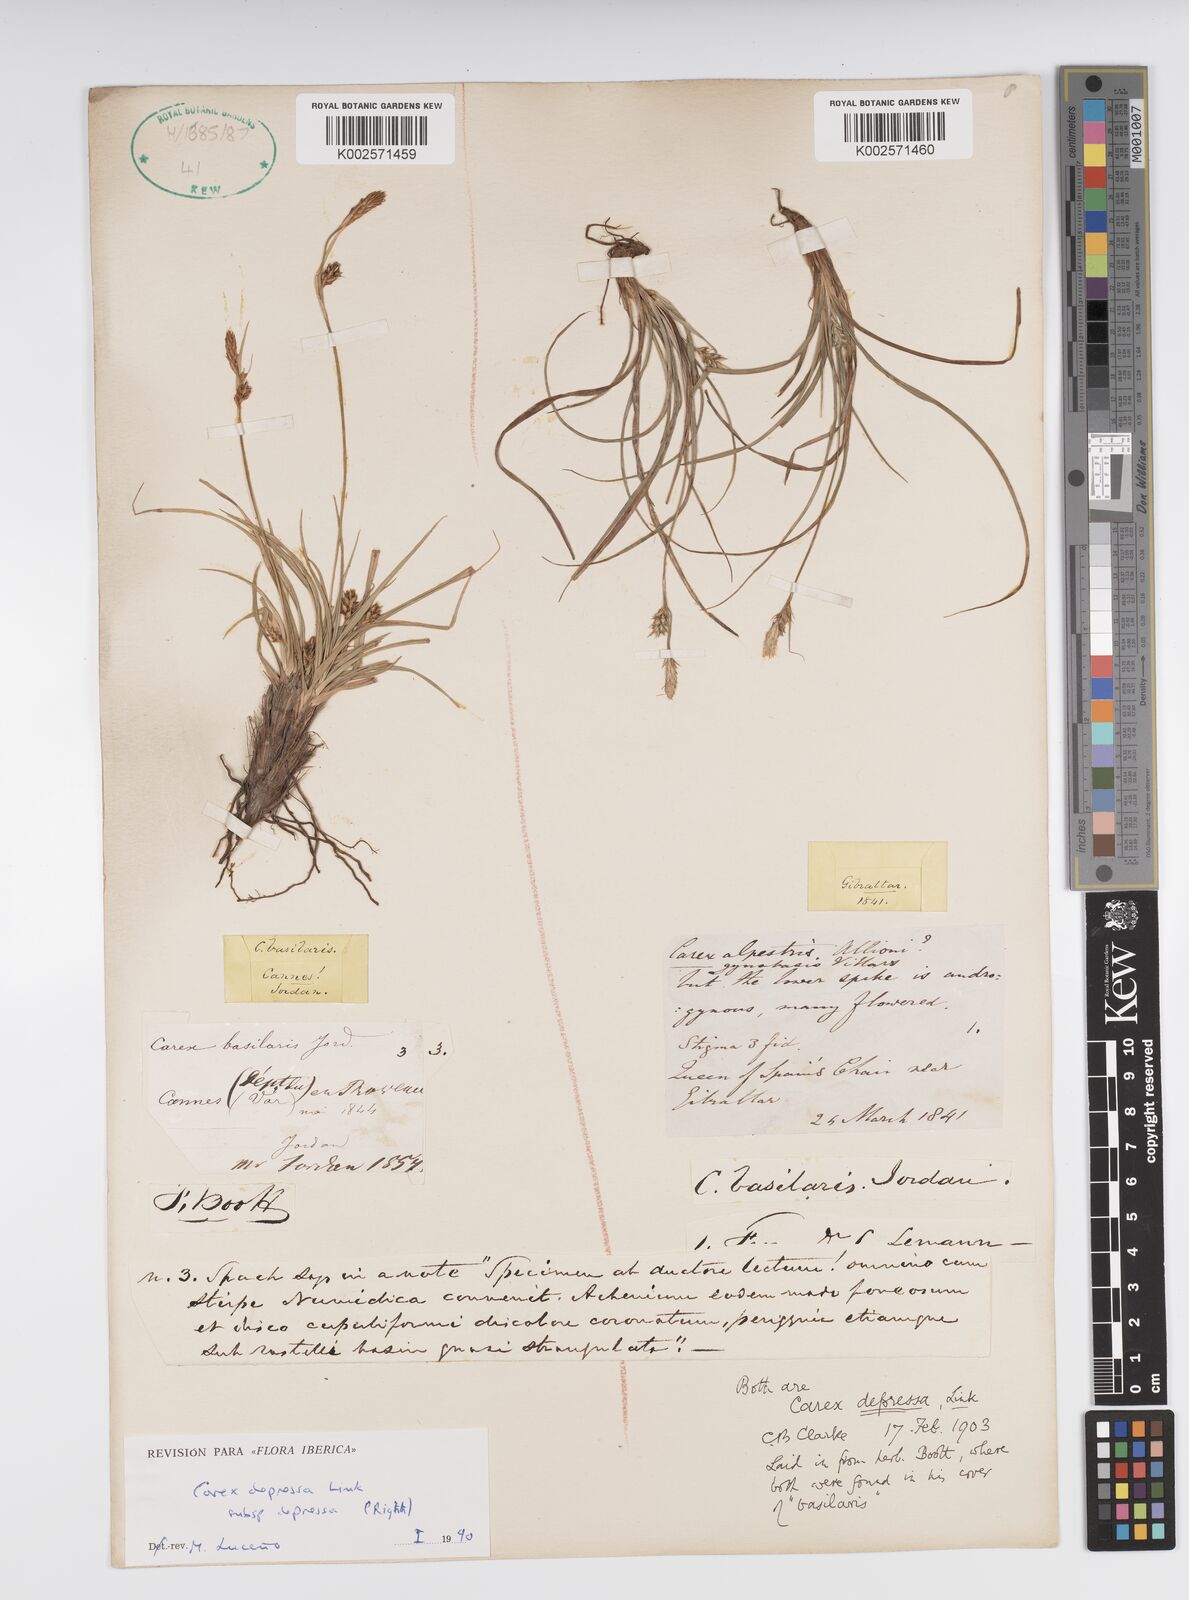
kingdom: Plantae
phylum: Tracheophyta
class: Liliopsida
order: Poales
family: Cyperaceae
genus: Carex
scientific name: Carex depressa
